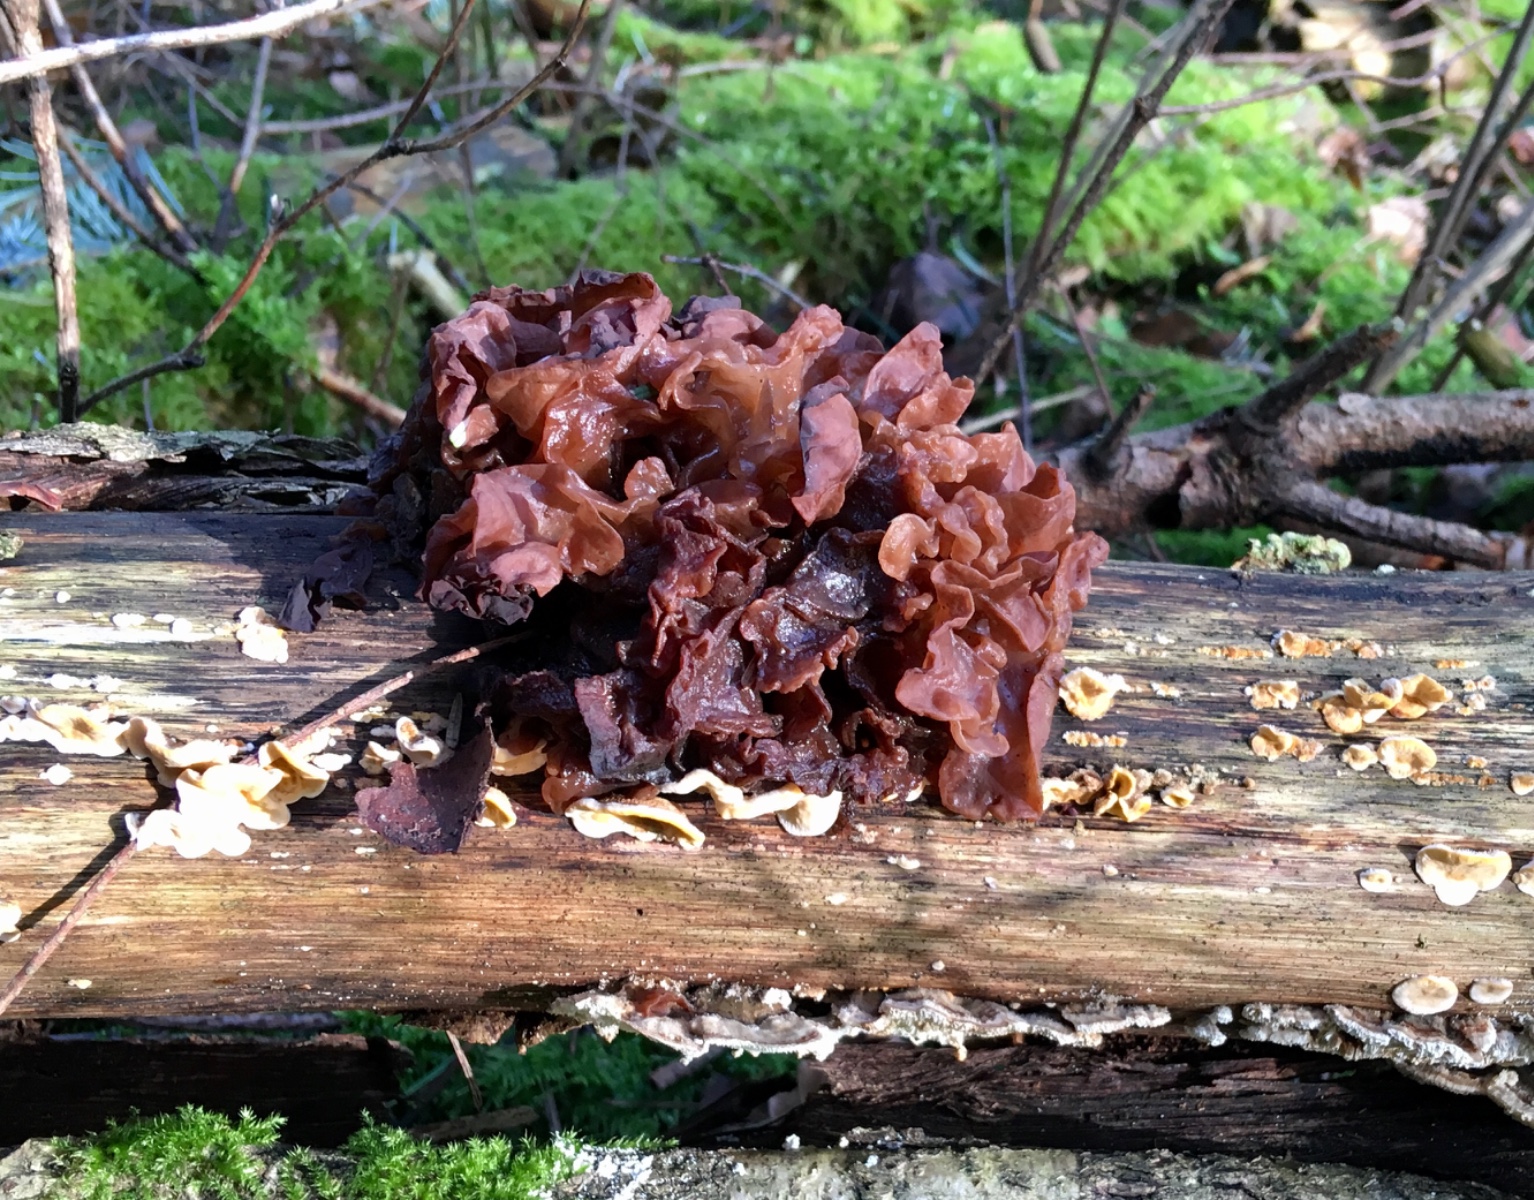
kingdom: Fungi
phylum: Basidiomycota
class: Tremellomycetes
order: Tremellales
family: Tremellaceae
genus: Phaeotremella
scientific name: Phaeotremella frondosa
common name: kæmpe-bævresvamp
